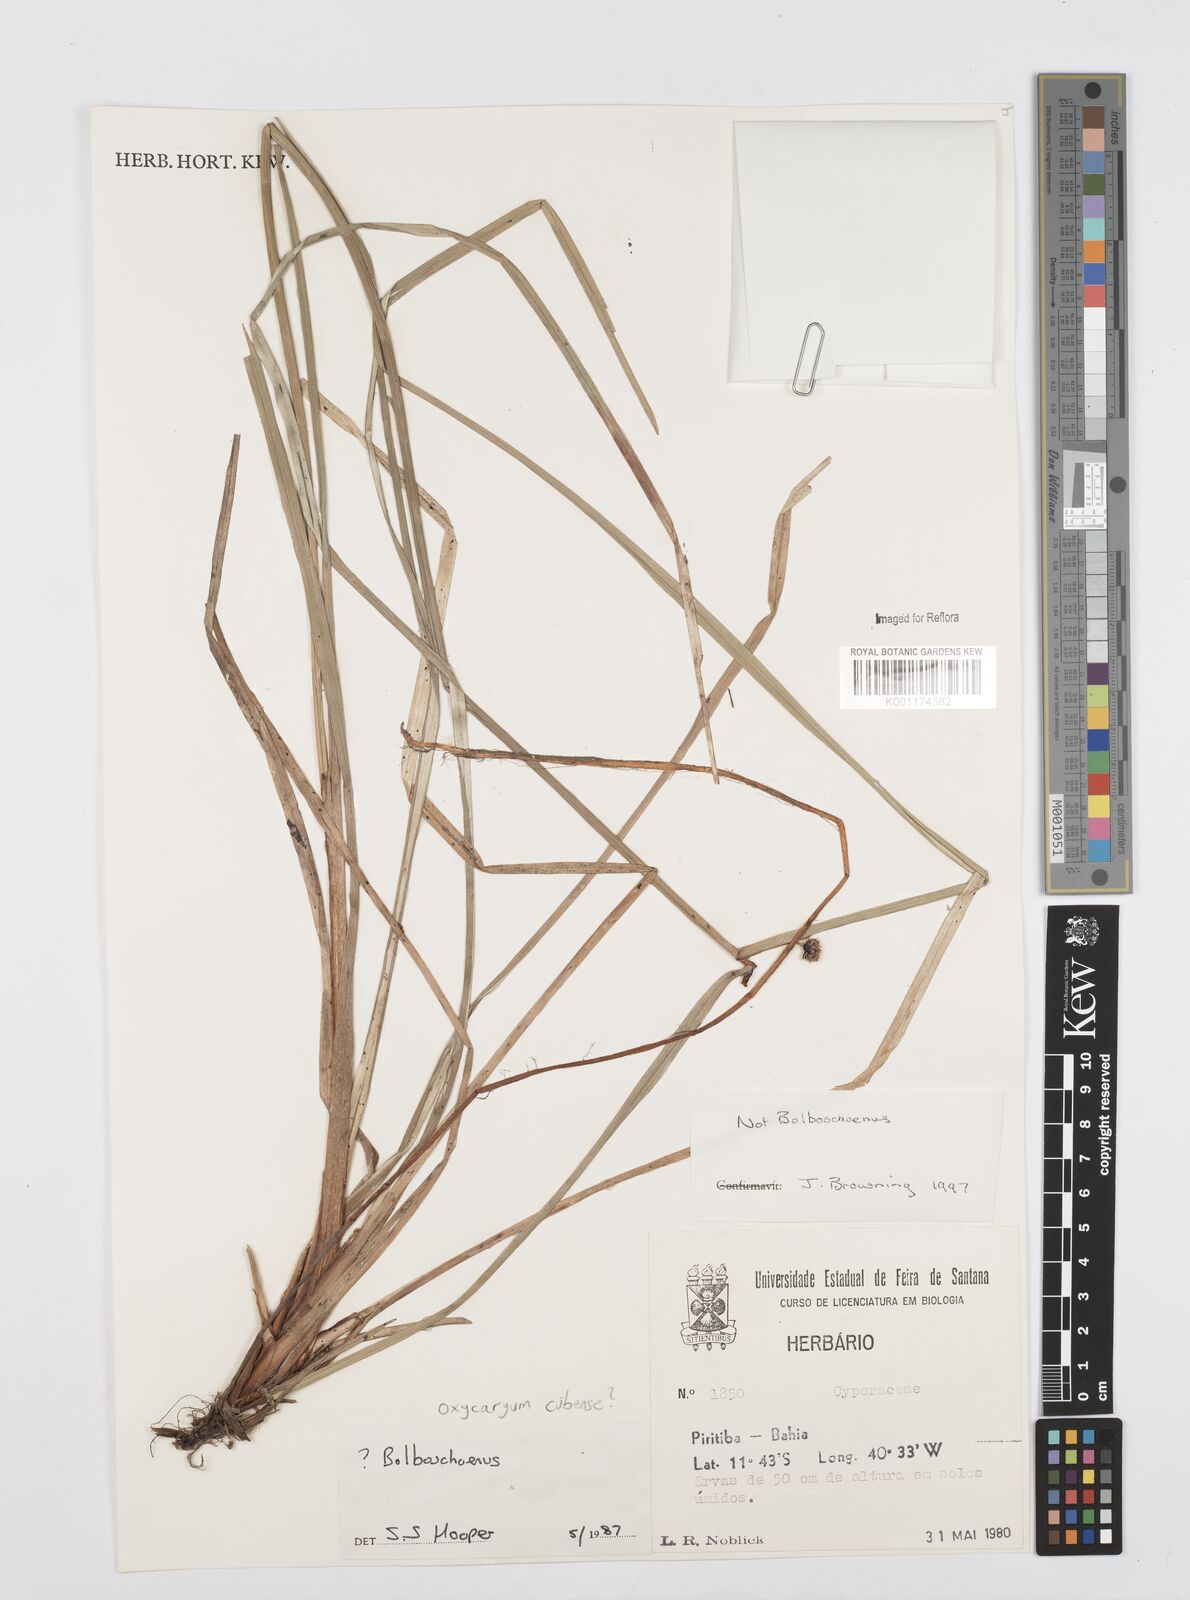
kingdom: Plantae
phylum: Tracheophyta
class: Liliopsida
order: Poales
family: Cyperaceae
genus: Cyperus
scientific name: Cyperus elegans
